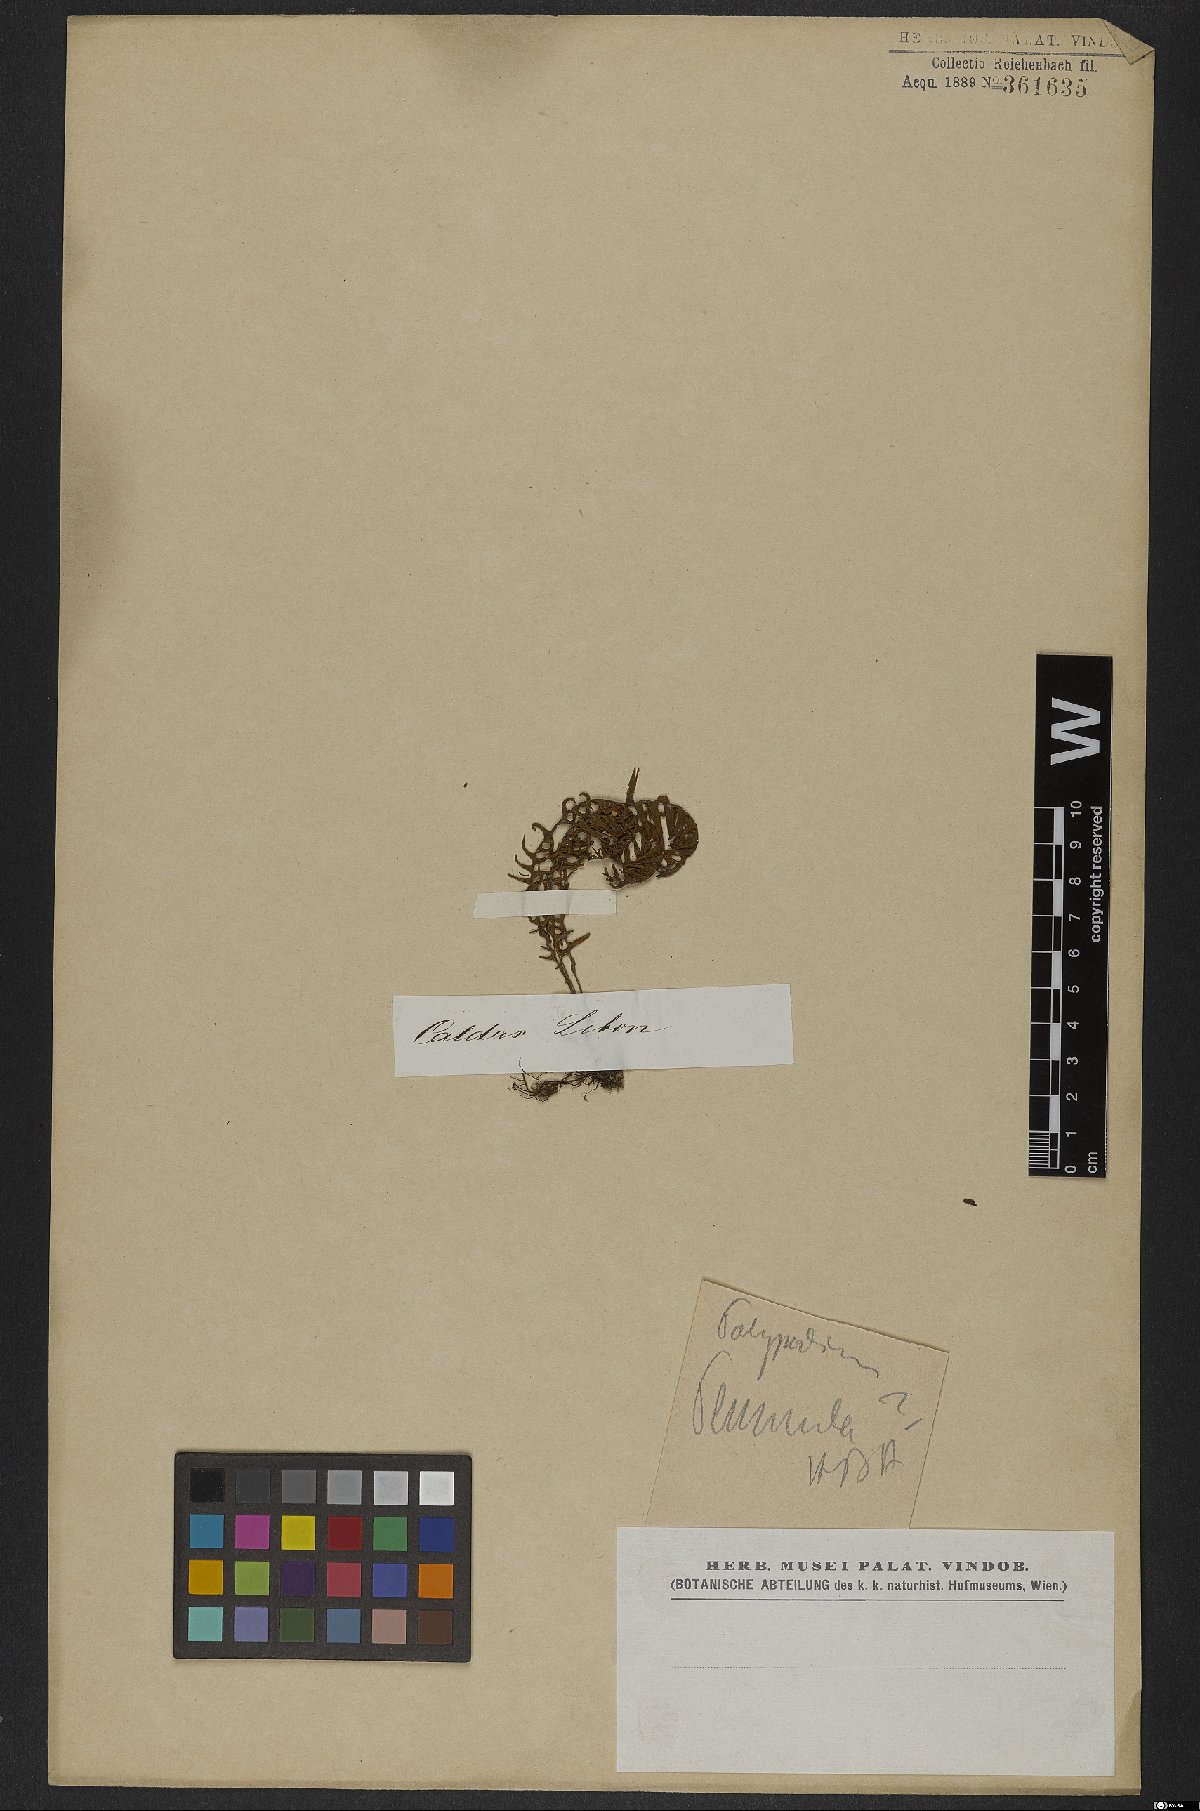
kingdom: Plantae
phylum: Tracheophyta
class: Polypodiopsida
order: Polypodiales
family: Polypodiaceae
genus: Pecluma
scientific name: Pecluma plumula
